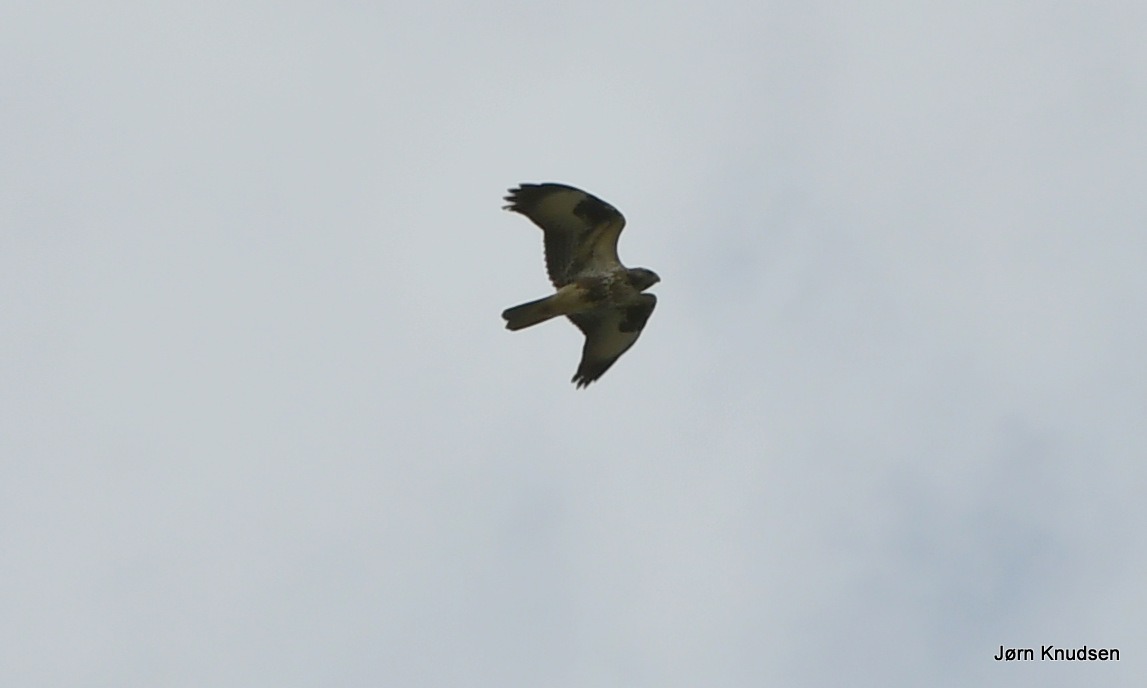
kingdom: Animalia
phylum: Chordata
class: Aves
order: Accipitriformes
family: Accipitridae
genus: Buteo
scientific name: Buteo buteo
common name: Musvåge
